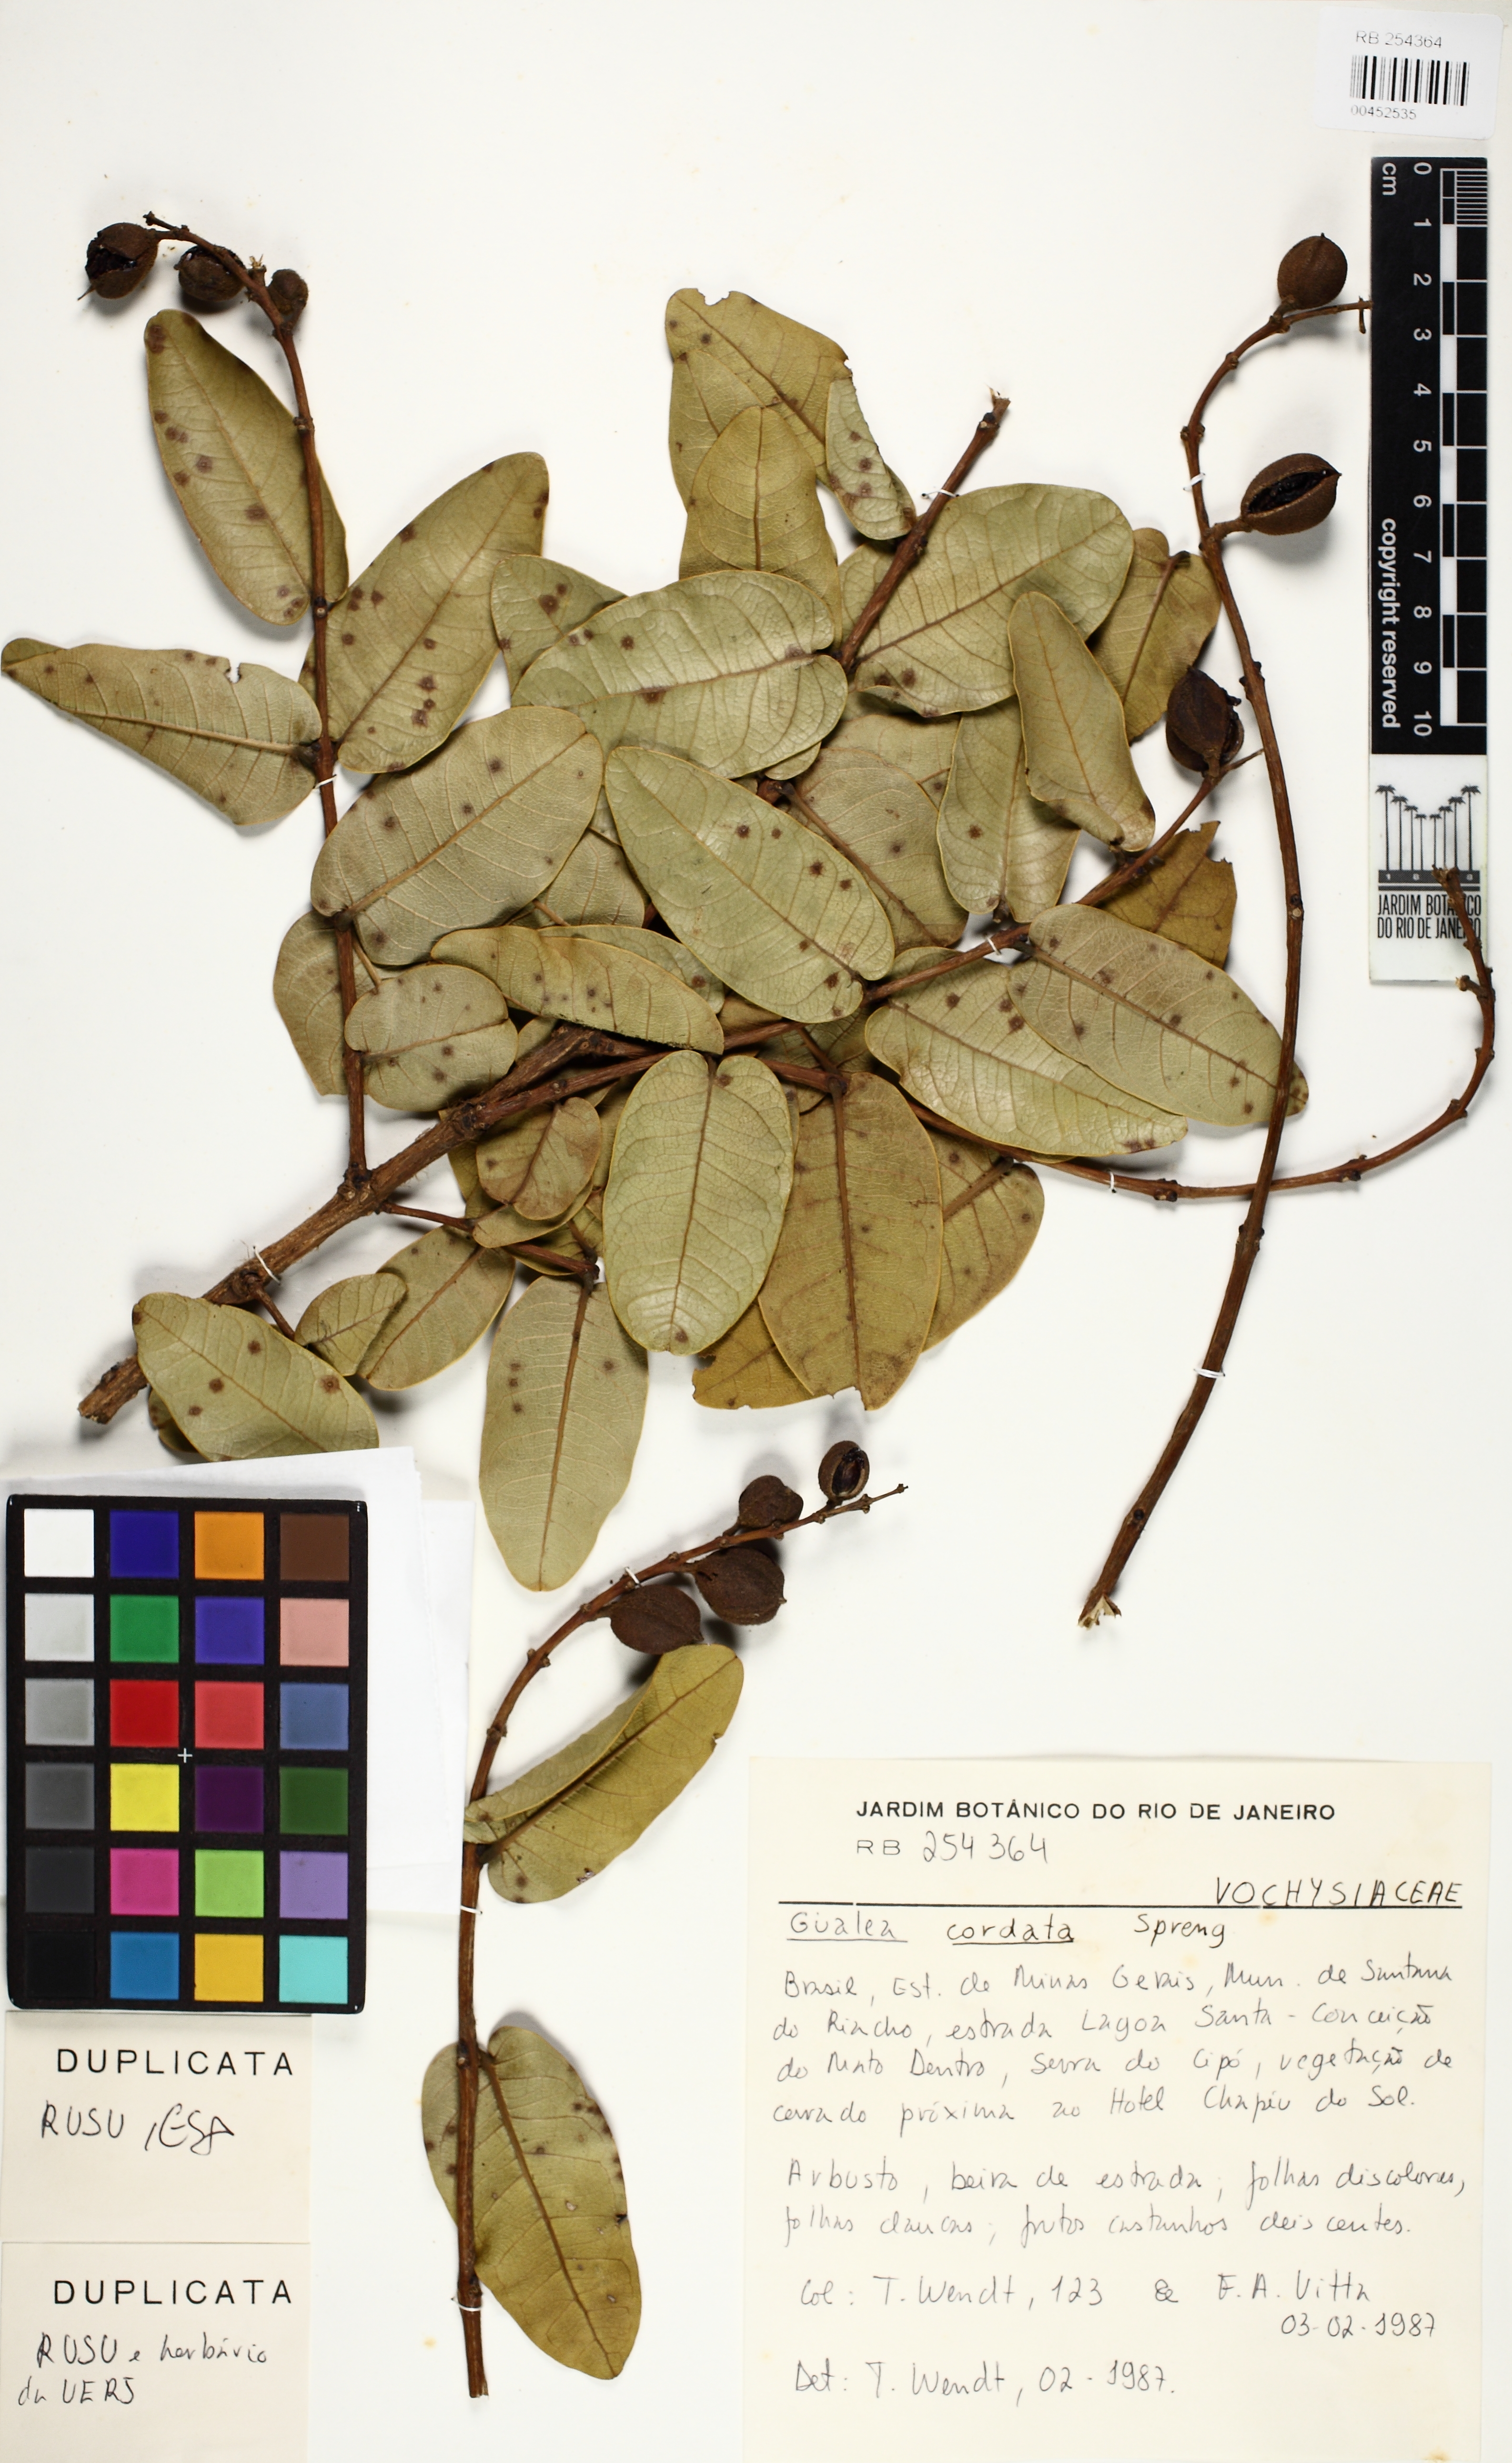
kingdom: Plantae
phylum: Tracheophyta
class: Magnoliopsida
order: Myrtales
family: Vochysiaceae
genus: Qualea
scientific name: Qualea cordata
